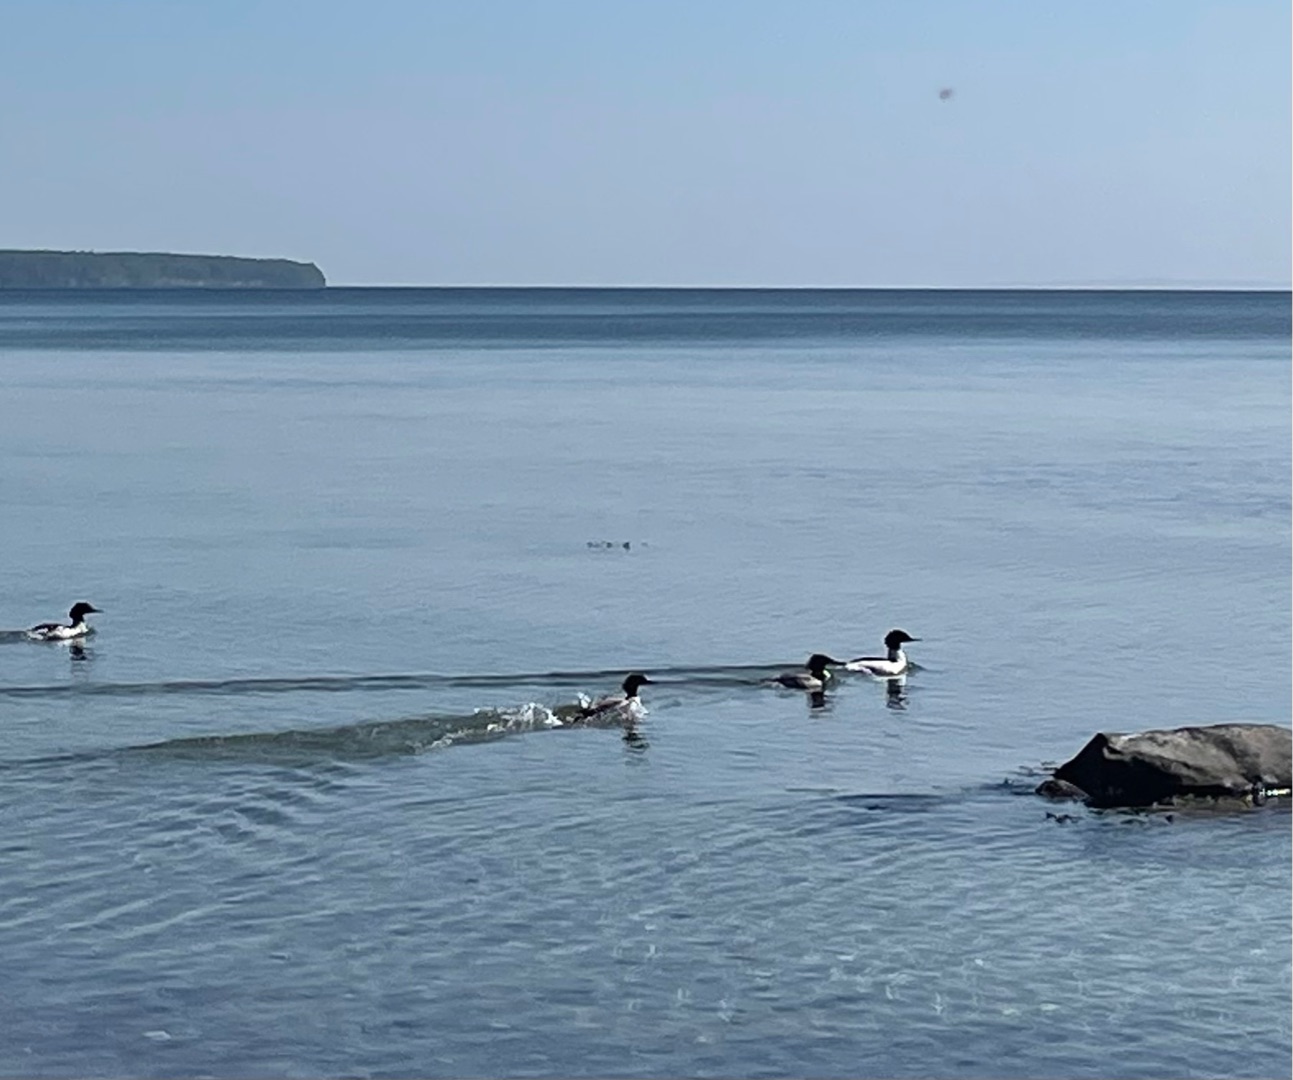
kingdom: Animalia
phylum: Chordata
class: Aves
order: Anseriformes
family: Anatidae
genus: Mergus
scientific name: Mergus merganser
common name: Stor skallesluger
